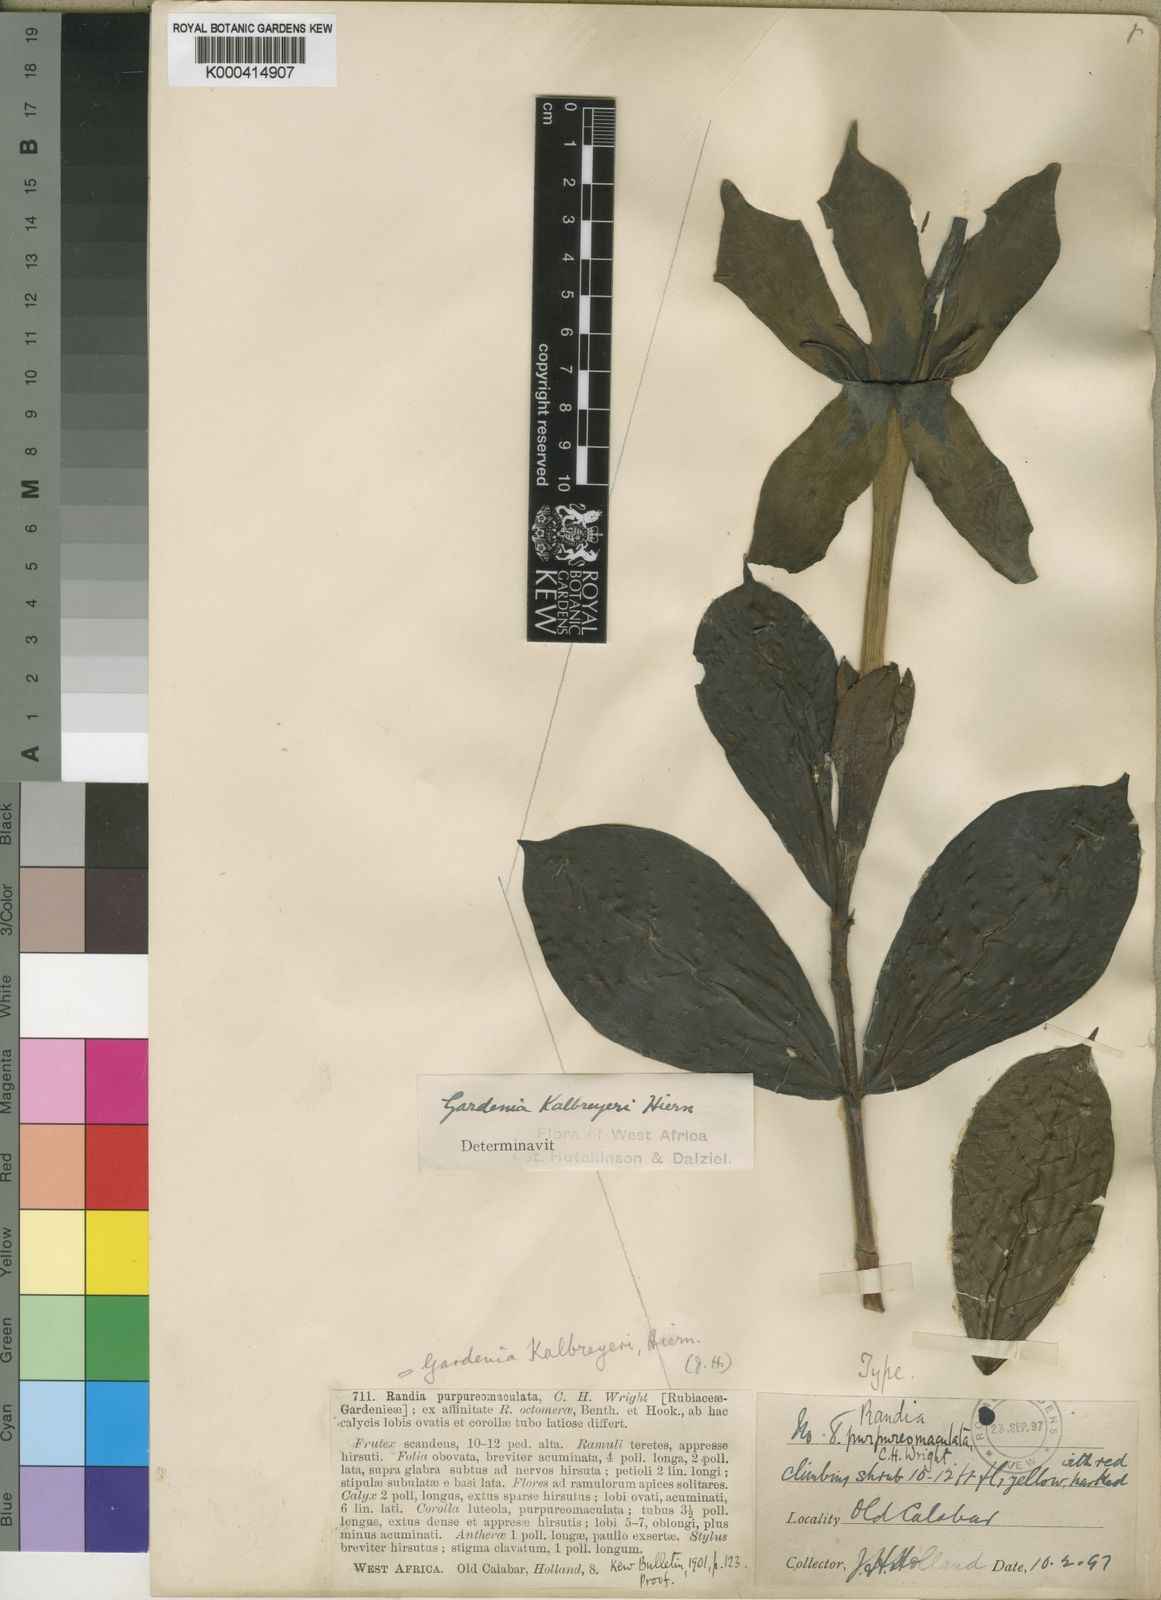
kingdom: Plantae
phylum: Tracheophyta
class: Magnoliopsida
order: Gentianales
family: Rubiaceae
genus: Adenorandia
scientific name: Adenorandia kalbreyeri
